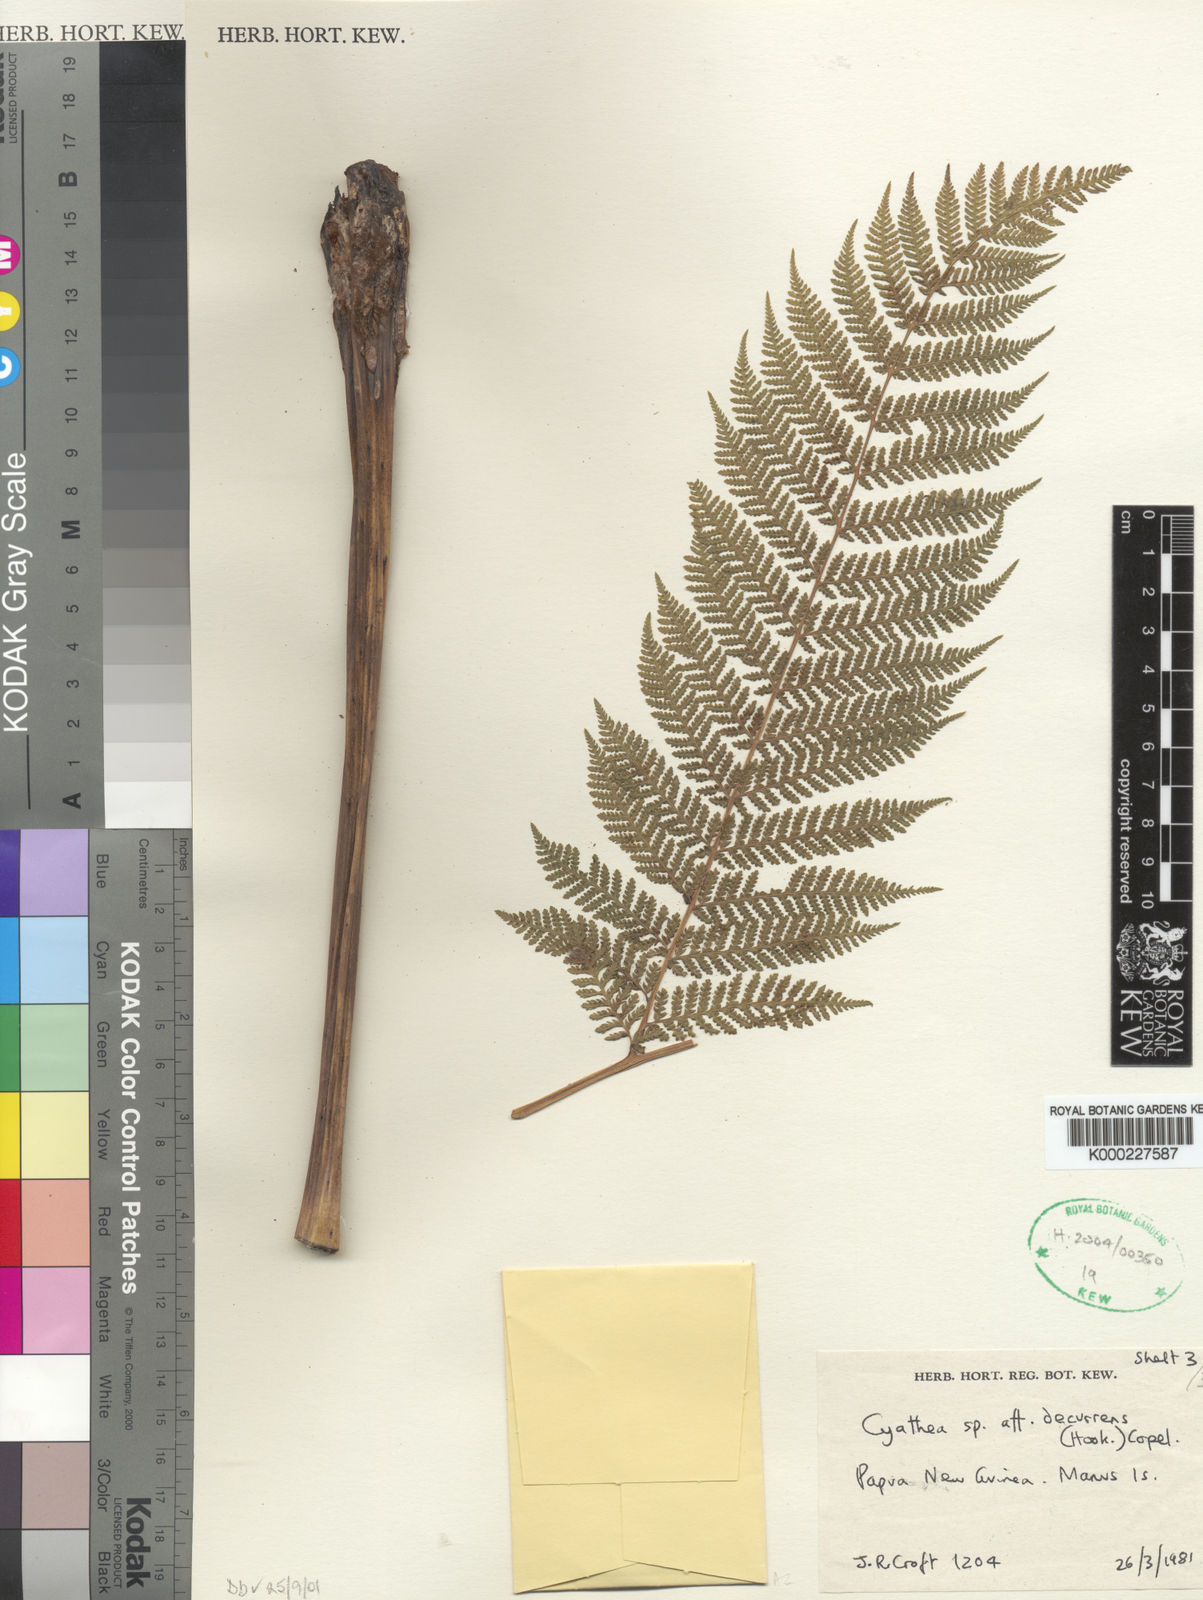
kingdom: Plantae
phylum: Tracheophyta
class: Polypodiopsida
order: Cyatheales
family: Cyatheaceae
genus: Cyathea
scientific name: Cyathea croftii
